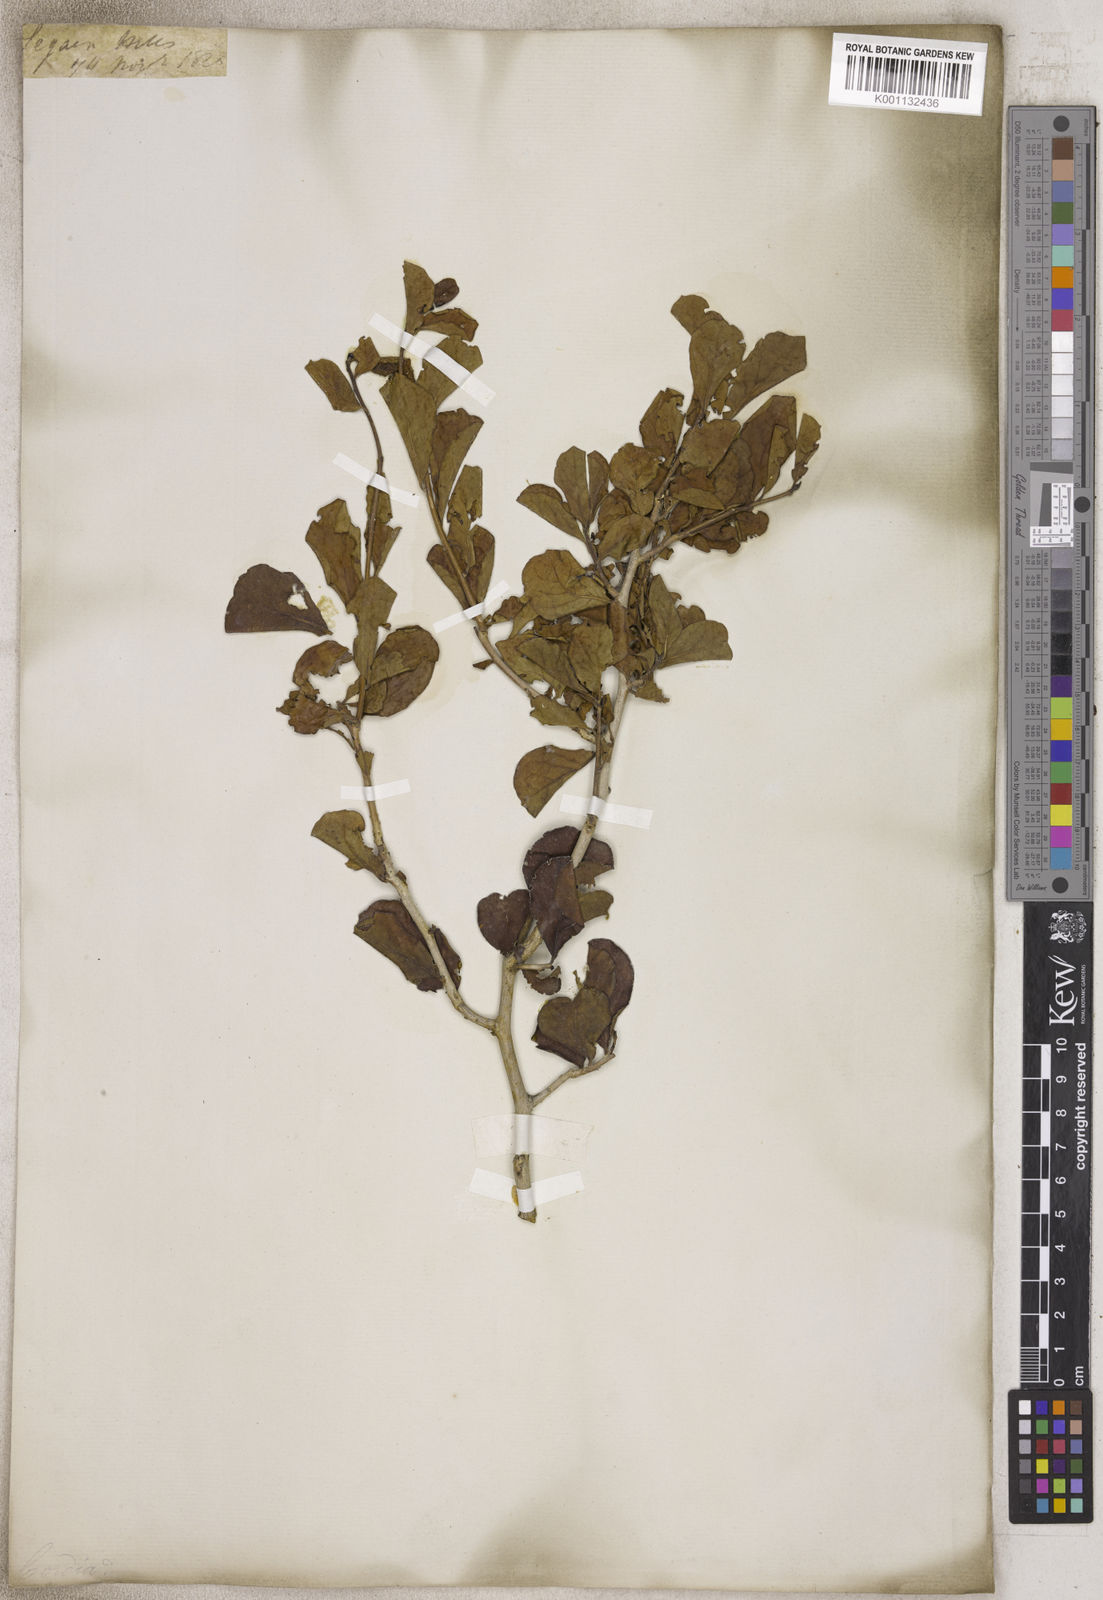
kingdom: Plantae
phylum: Tracheophyta
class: Magnoliopsida
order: Boraginales
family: Cordiaceae
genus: Cordia
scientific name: Cordia
